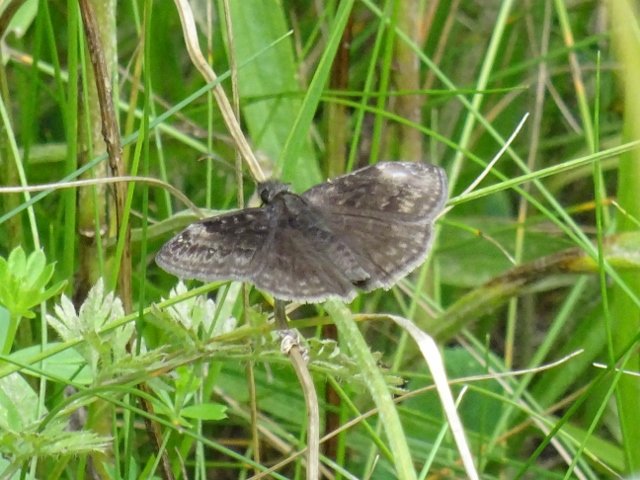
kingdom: Animalia
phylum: Arthropoda
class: Insecta
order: Lepidoptera
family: Hesperiidae
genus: Gesta
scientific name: Gesta
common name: Wild Indigo Duskywing
